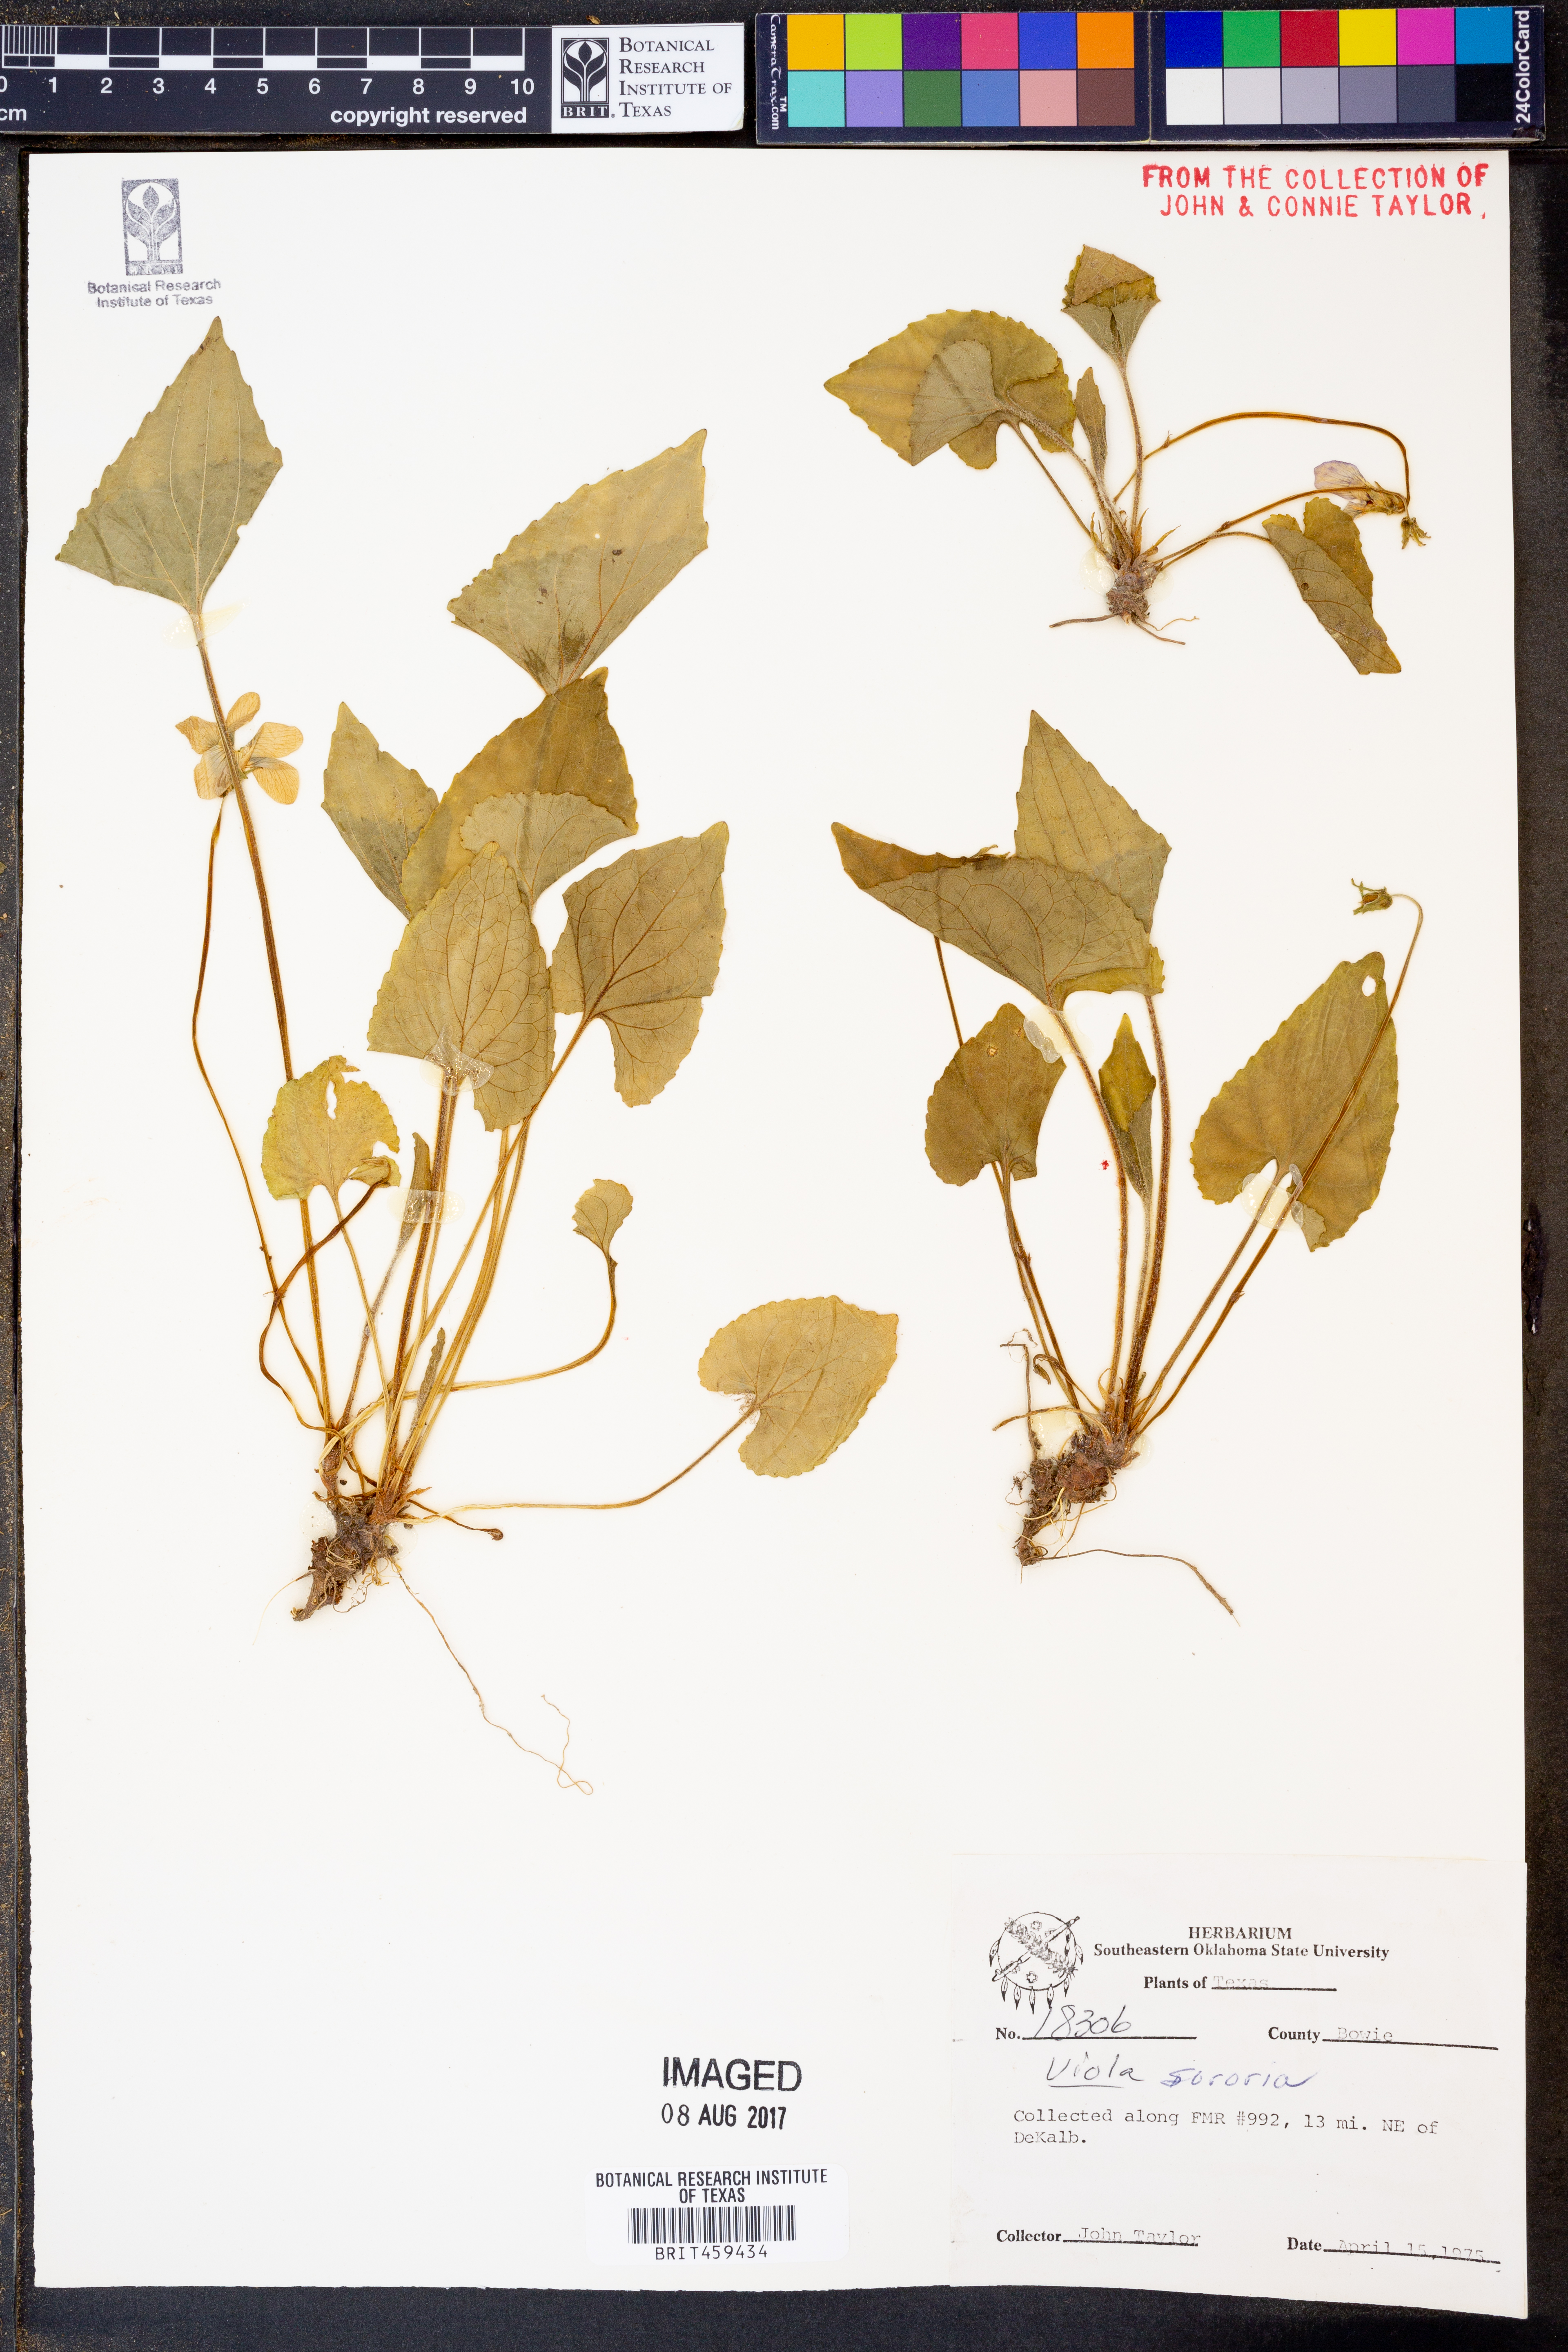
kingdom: Plantae
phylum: Tracheophyta
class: Magnoliopsida
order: Malpighiales
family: Violaceae
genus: Viola
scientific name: Viola sororia
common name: Dooryard violet
